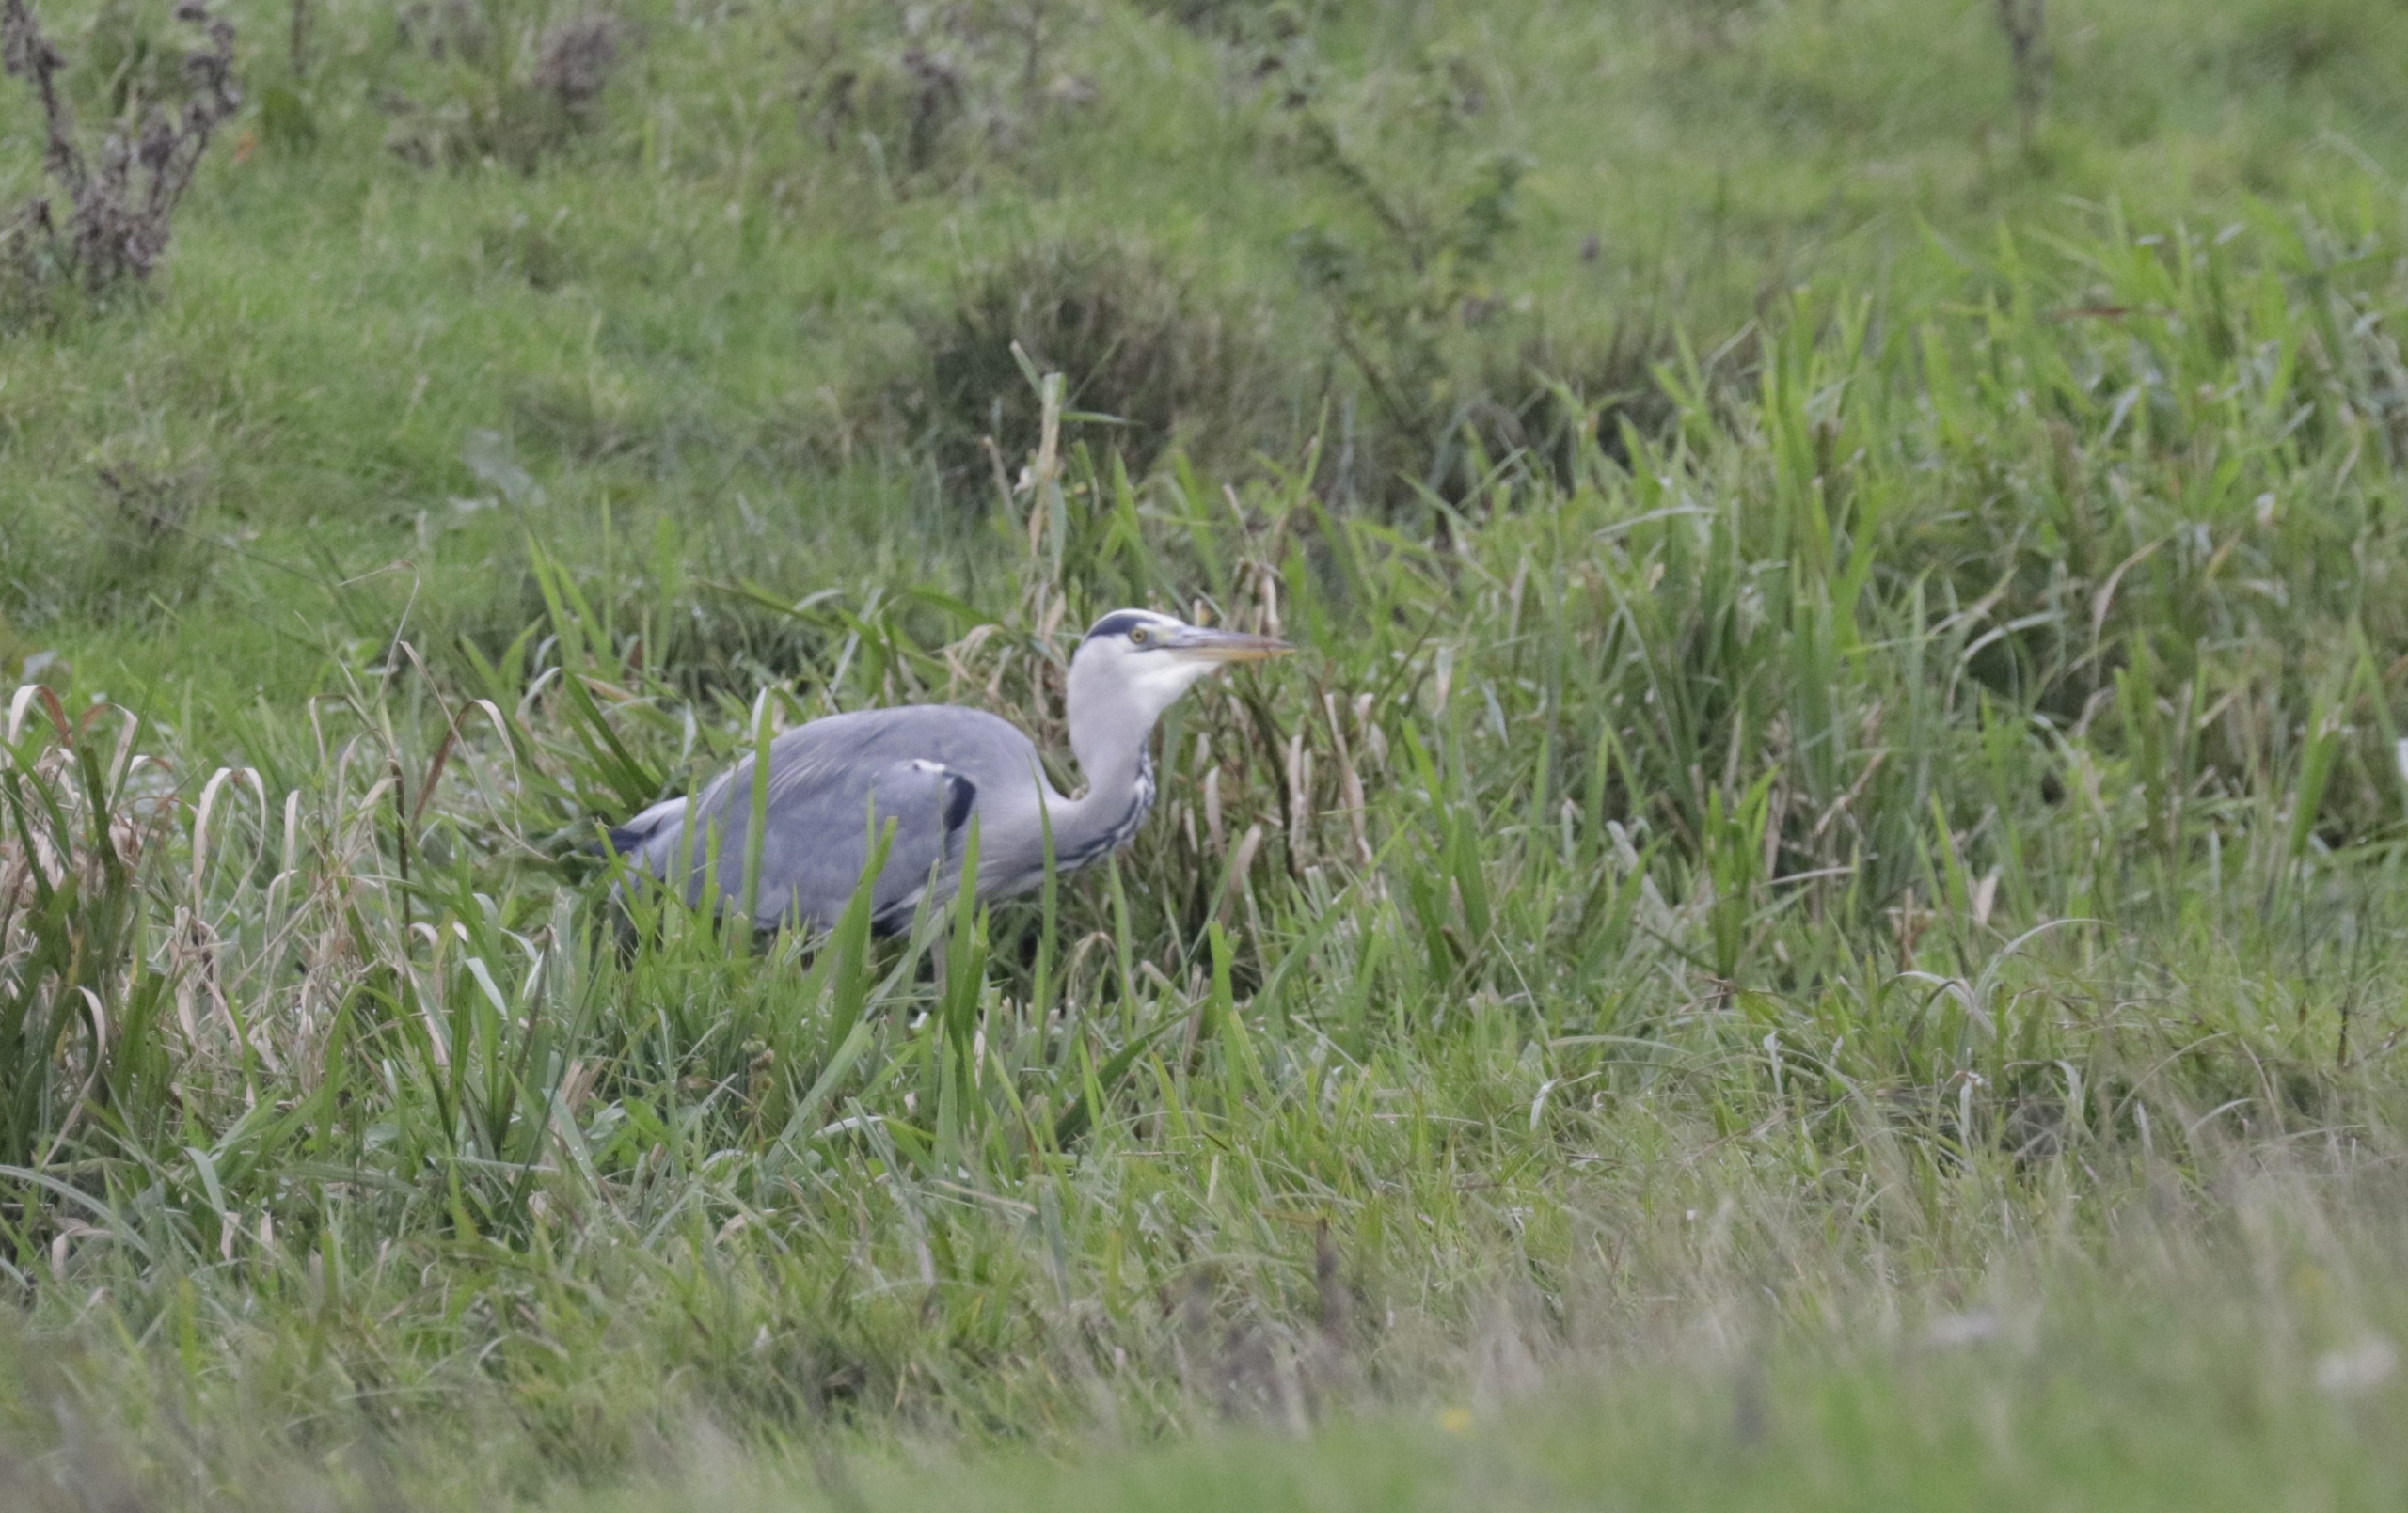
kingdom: Animalia
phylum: Chordata
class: Aves
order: Pelecaniformes
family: Ardeidae
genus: Ardea
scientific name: Ardea cinerea
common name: Fiskehejre
